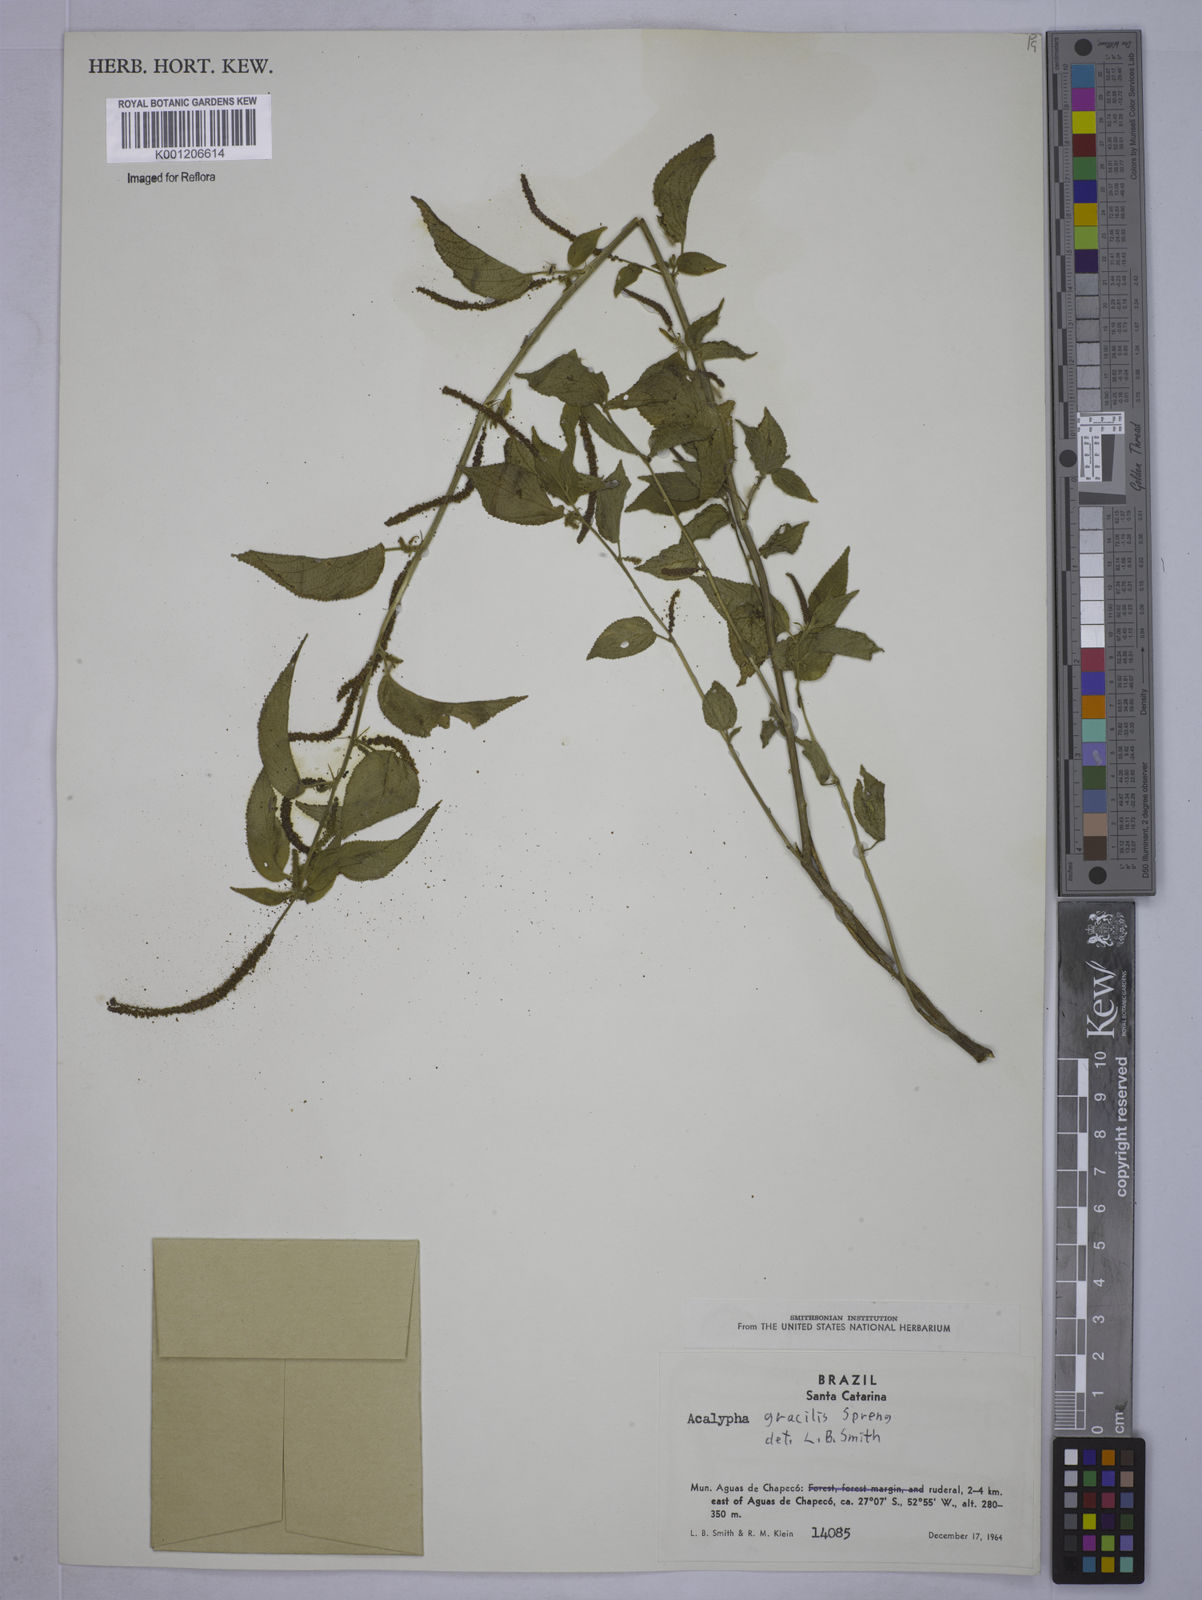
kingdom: Plantae
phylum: Tracheophyta
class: Magnoliopsida
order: Malpighiales
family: Euphorbiaceae
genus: Acalypha
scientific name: Acalypha gracilis
